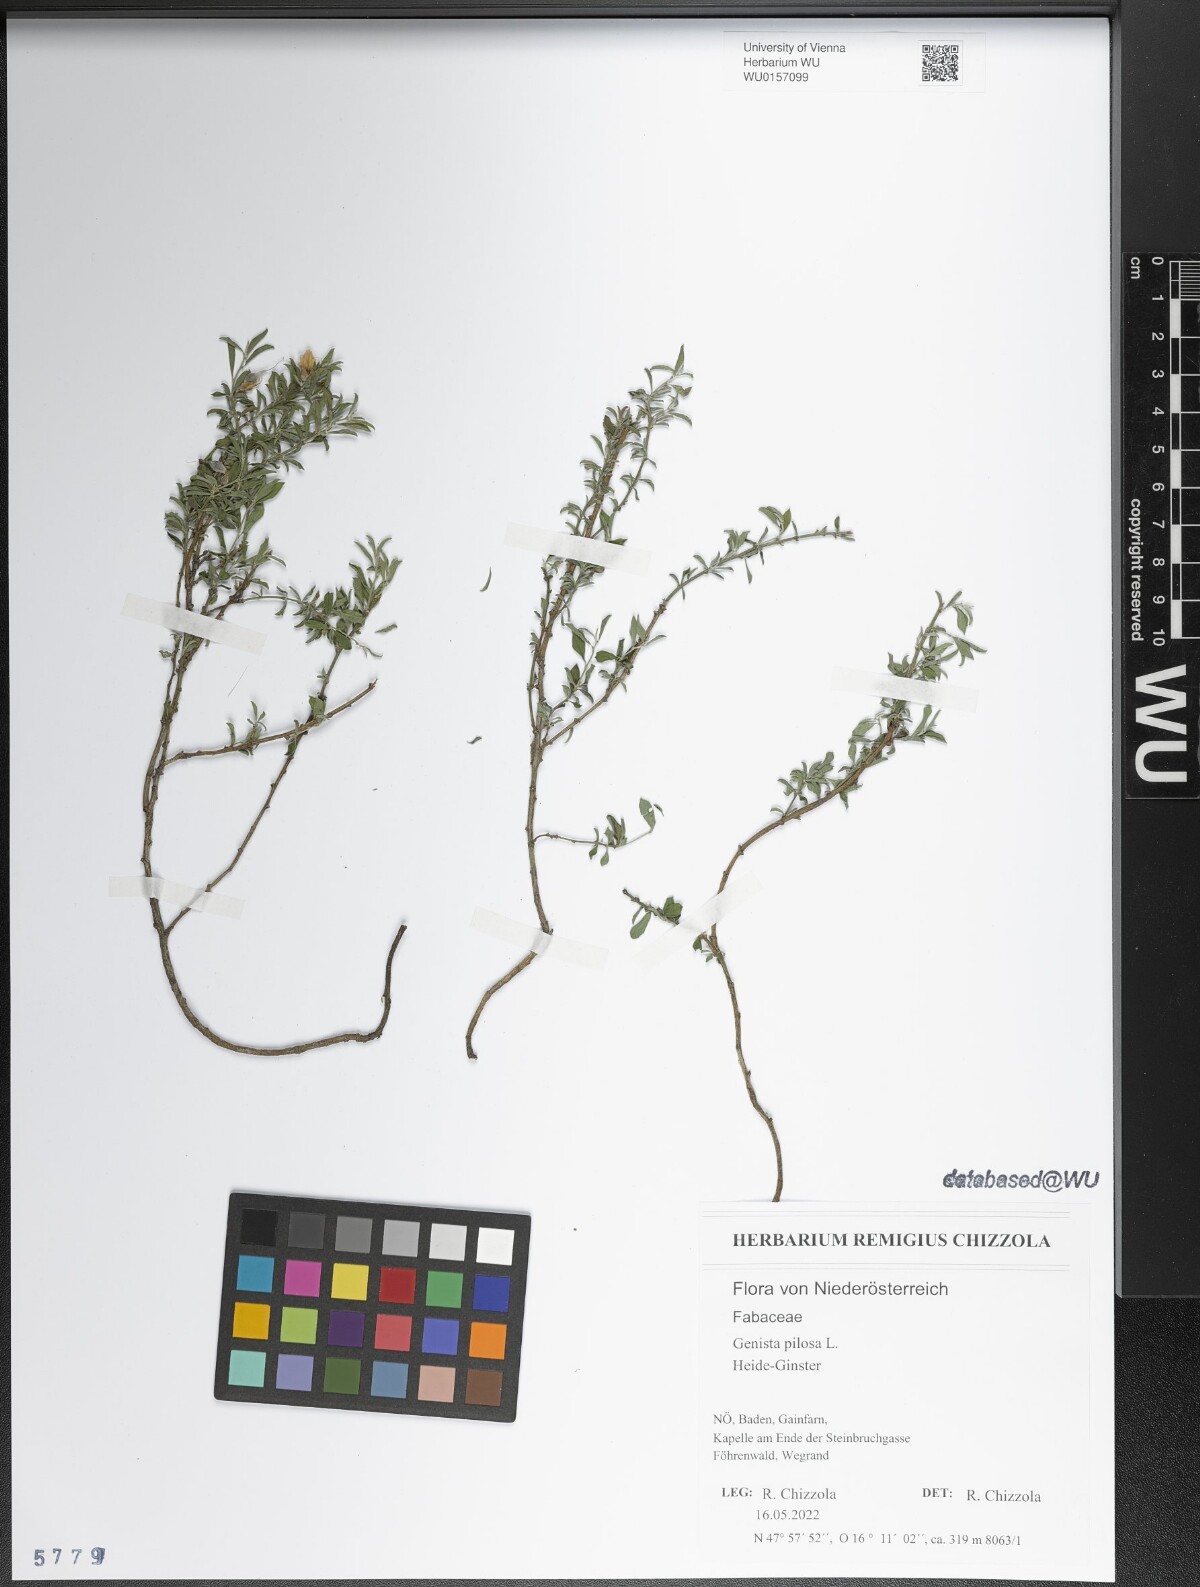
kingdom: Plantae
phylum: Tracheophyta
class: Magnoliopsida
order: Fabales
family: Fabaceae
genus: Genista
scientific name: Genista pilosa
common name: Hairy greenweed
